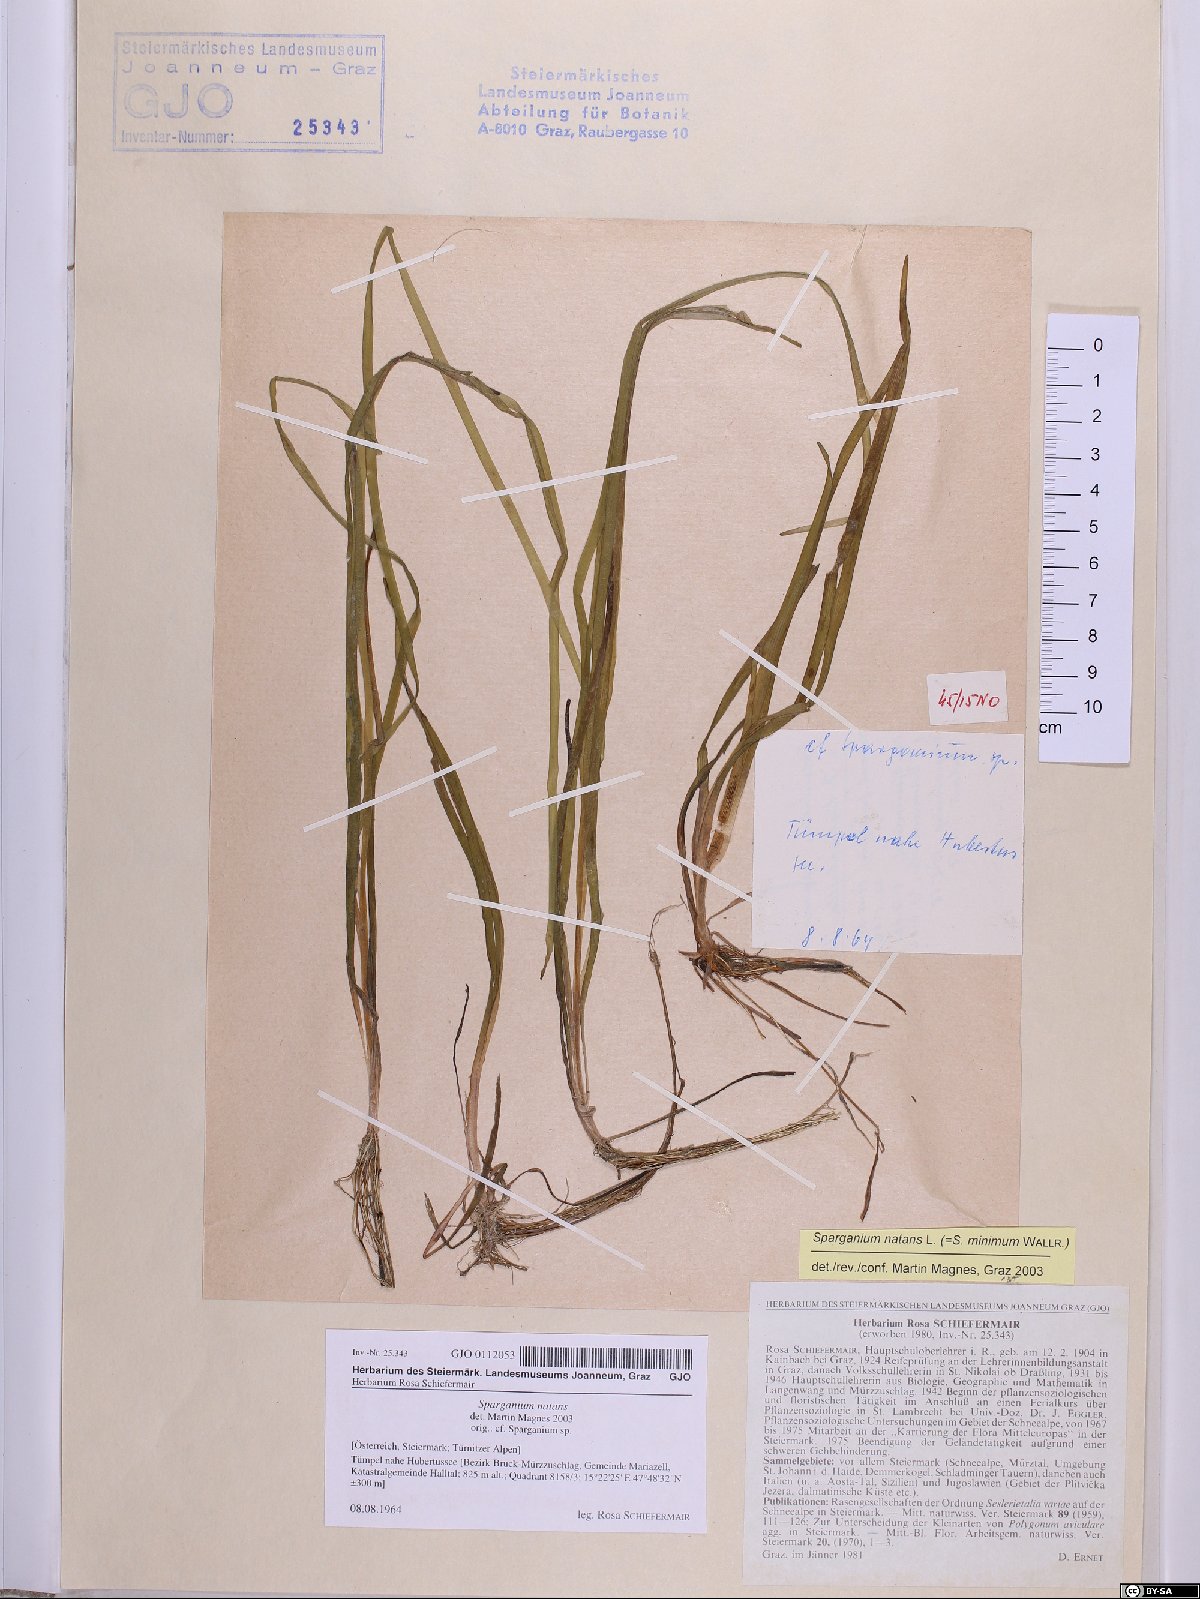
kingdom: Plantae
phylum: Tracheophyta
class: Liliopsida
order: Poales
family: Typhaceae
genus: Sparganium
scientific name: Sparganium natans
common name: Least bur-reed
